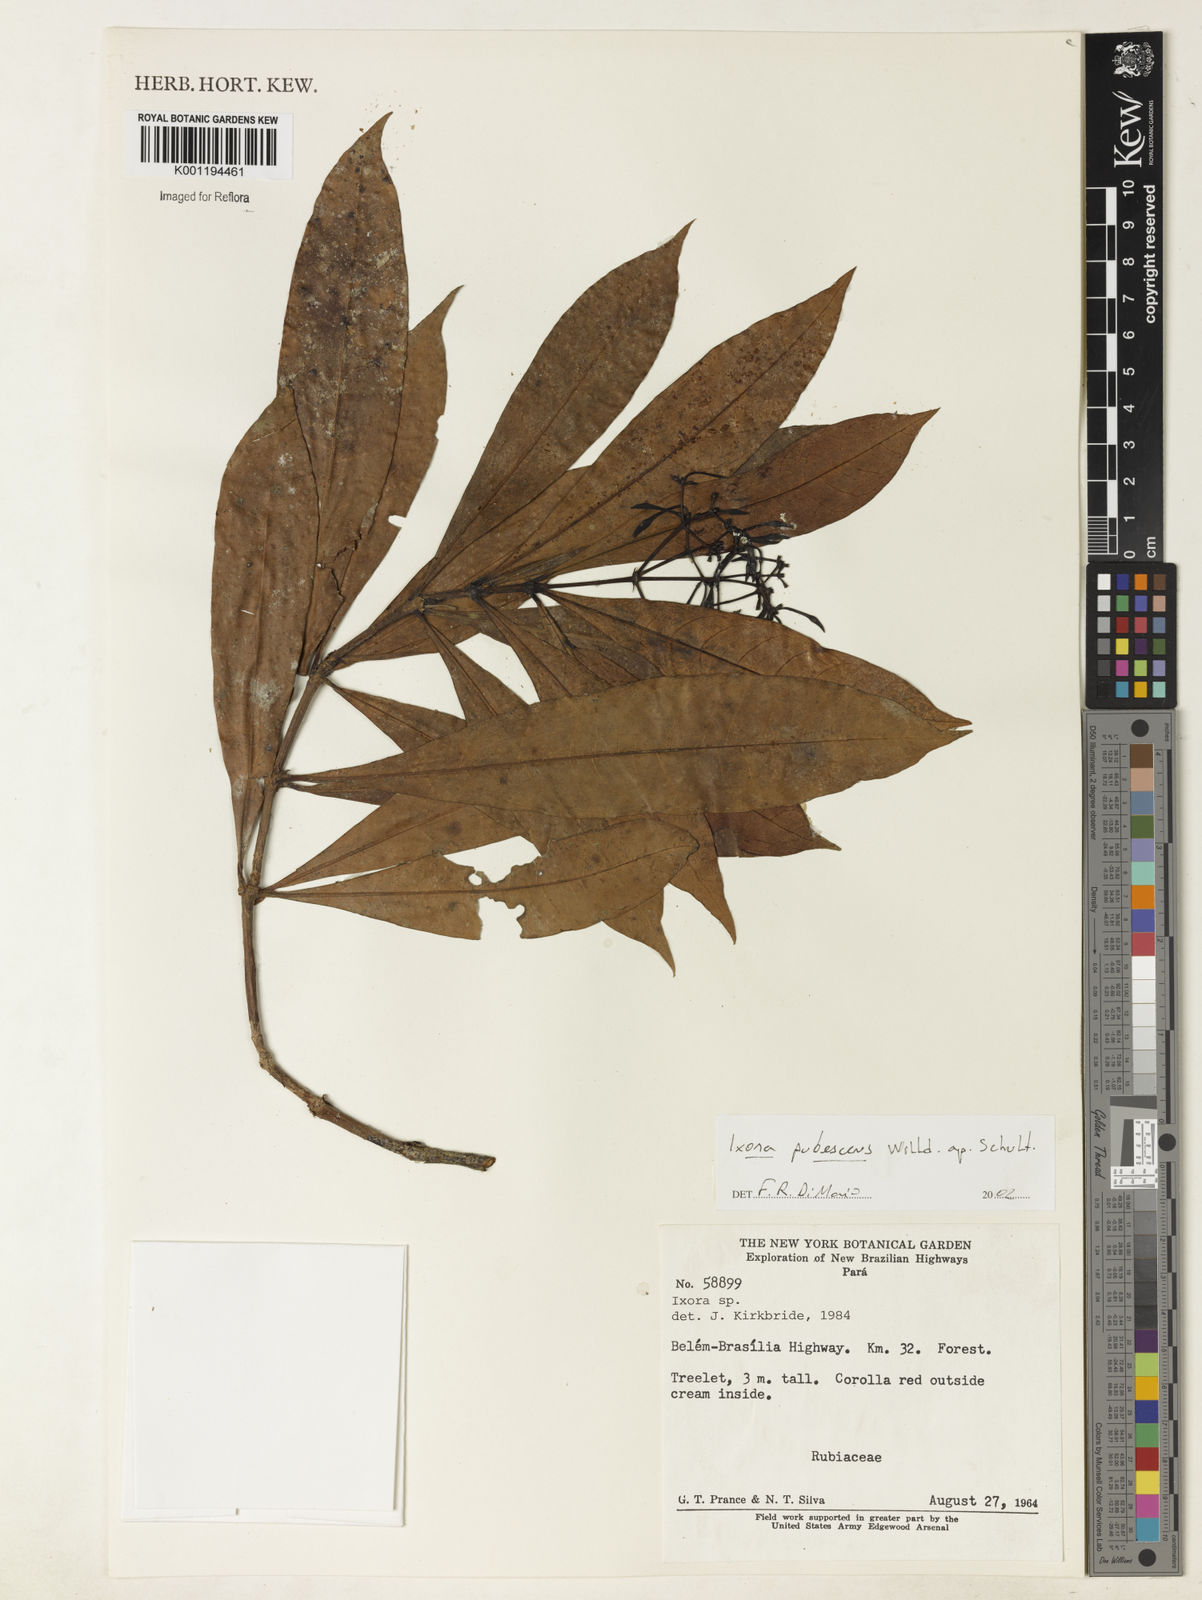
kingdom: Plantae
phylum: Tracheophyta
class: Magnoliopsida
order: Gentianales
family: Rubiaceae
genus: Ixora
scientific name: Ixora
